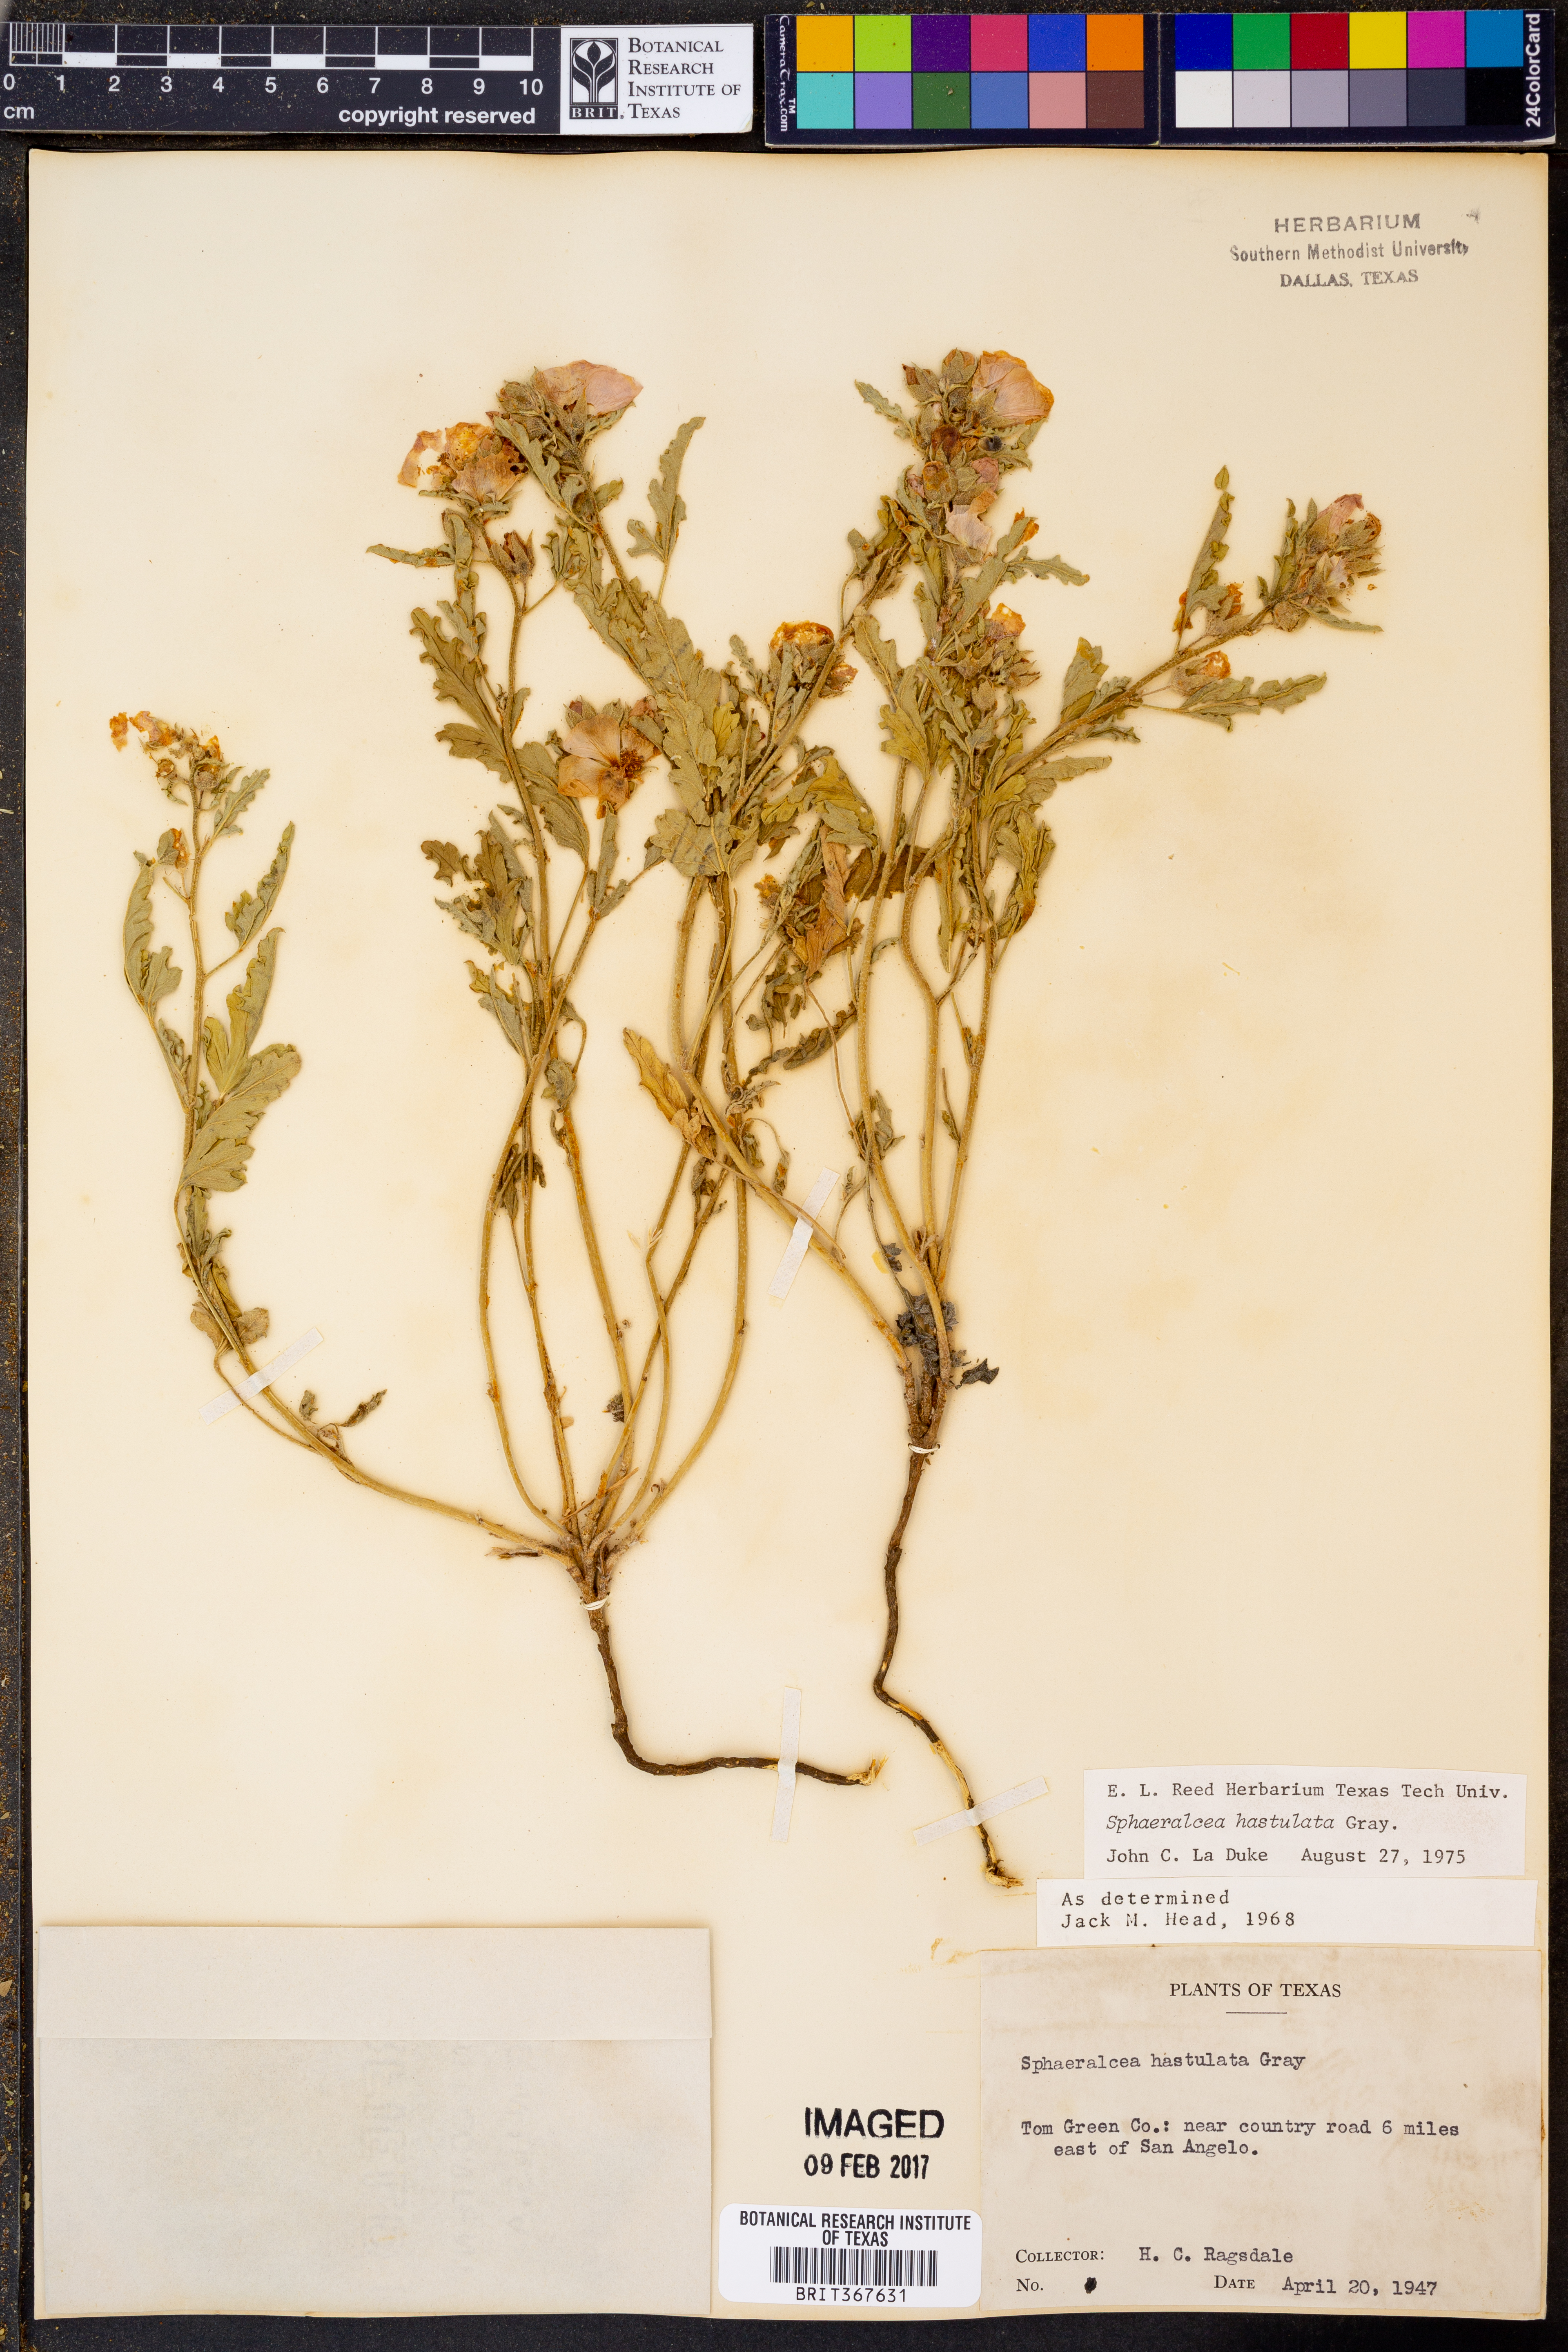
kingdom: Plantae
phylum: Tracheophyta
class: Magnoliopsida
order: Malvales
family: Malvaceae
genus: Sphaeralcea
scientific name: Sphaeralcea hastulata
